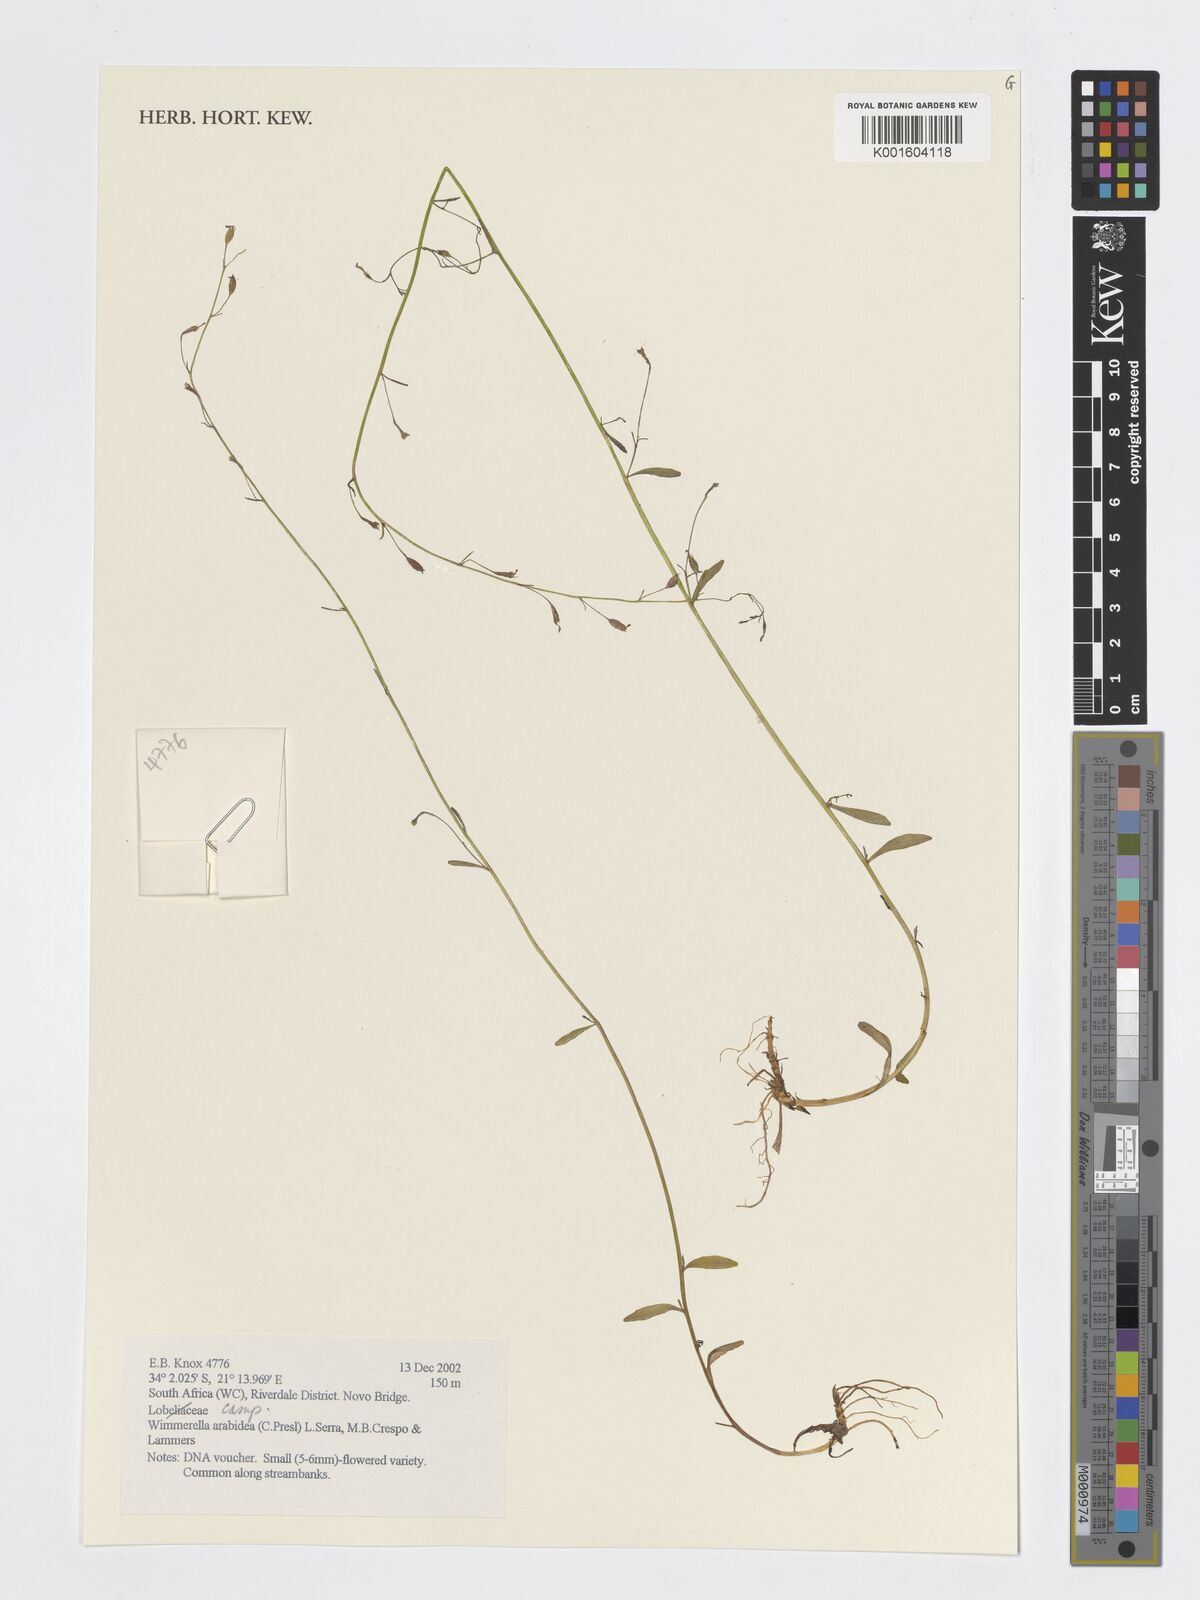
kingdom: Plantae
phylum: Tracheophyta
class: Magnoliopsida
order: Asterales
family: Campanulaceae
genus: Wimmerella
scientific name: Wimmerella arabidea
